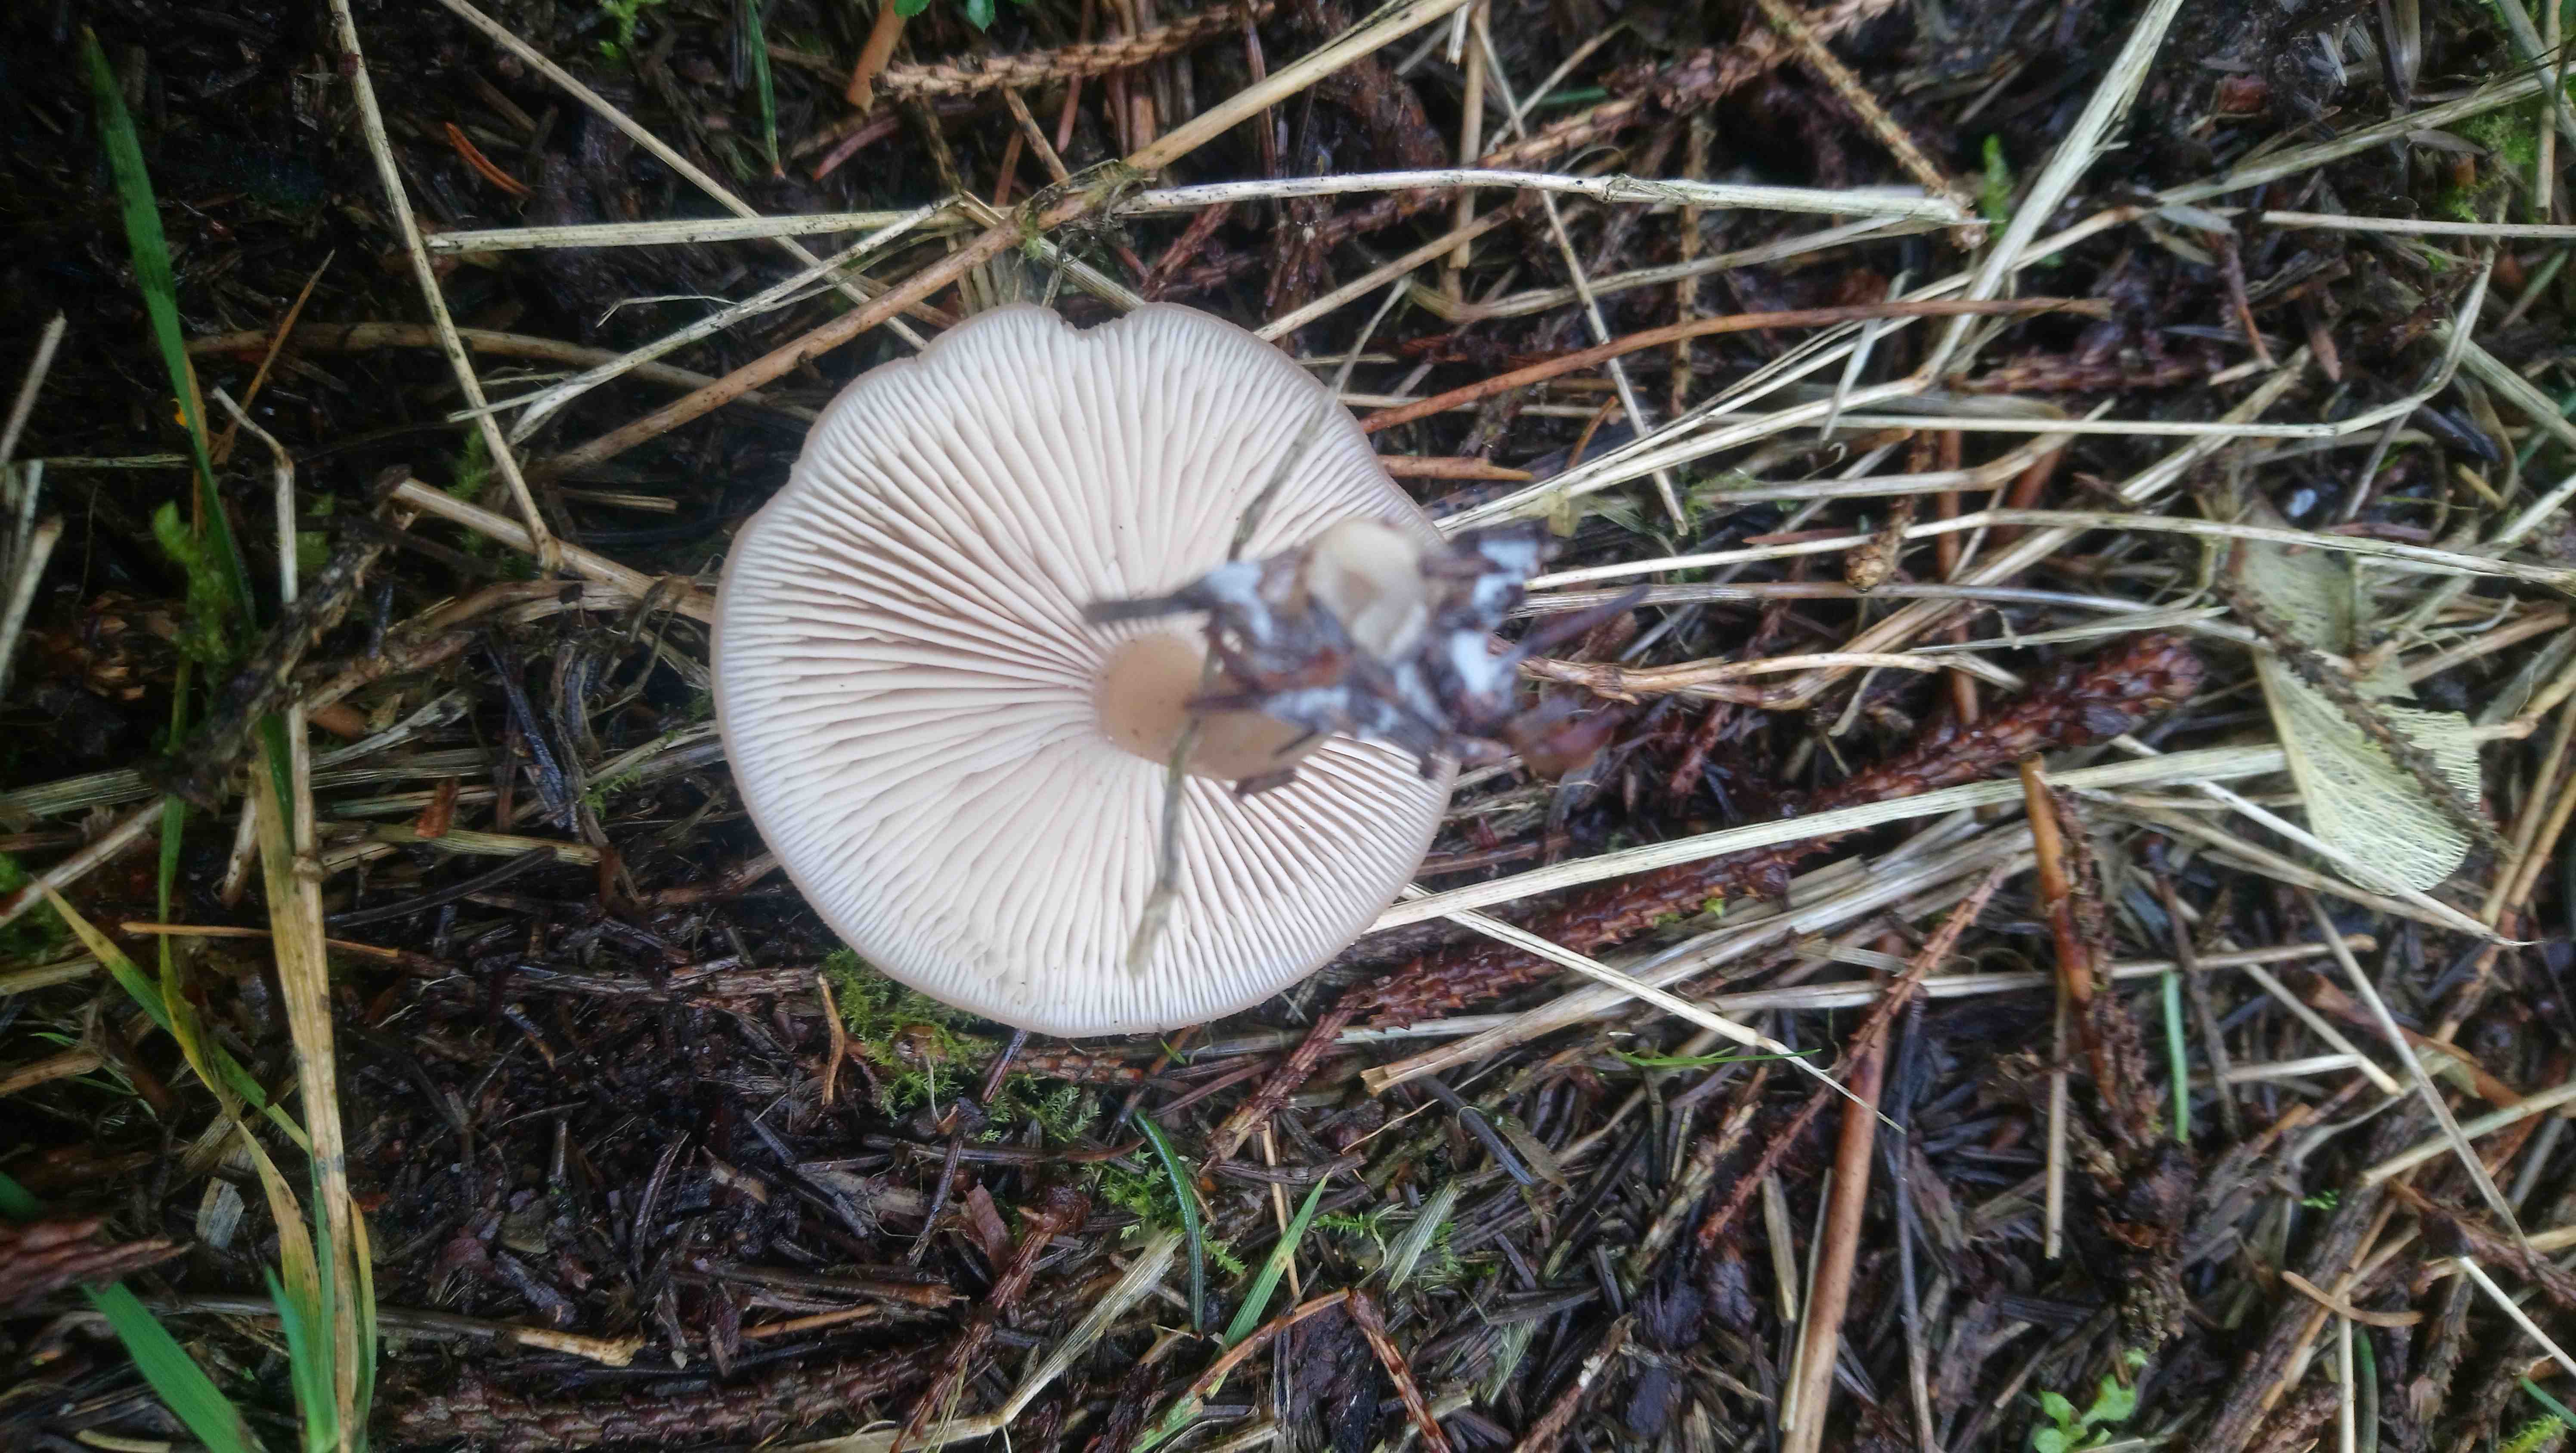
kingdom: Fungi
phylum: Basidiomycota
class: Agaricomycetes
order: Agaricales
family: Tricholomataceae
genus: Clitocybe
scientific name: Clitocybe
